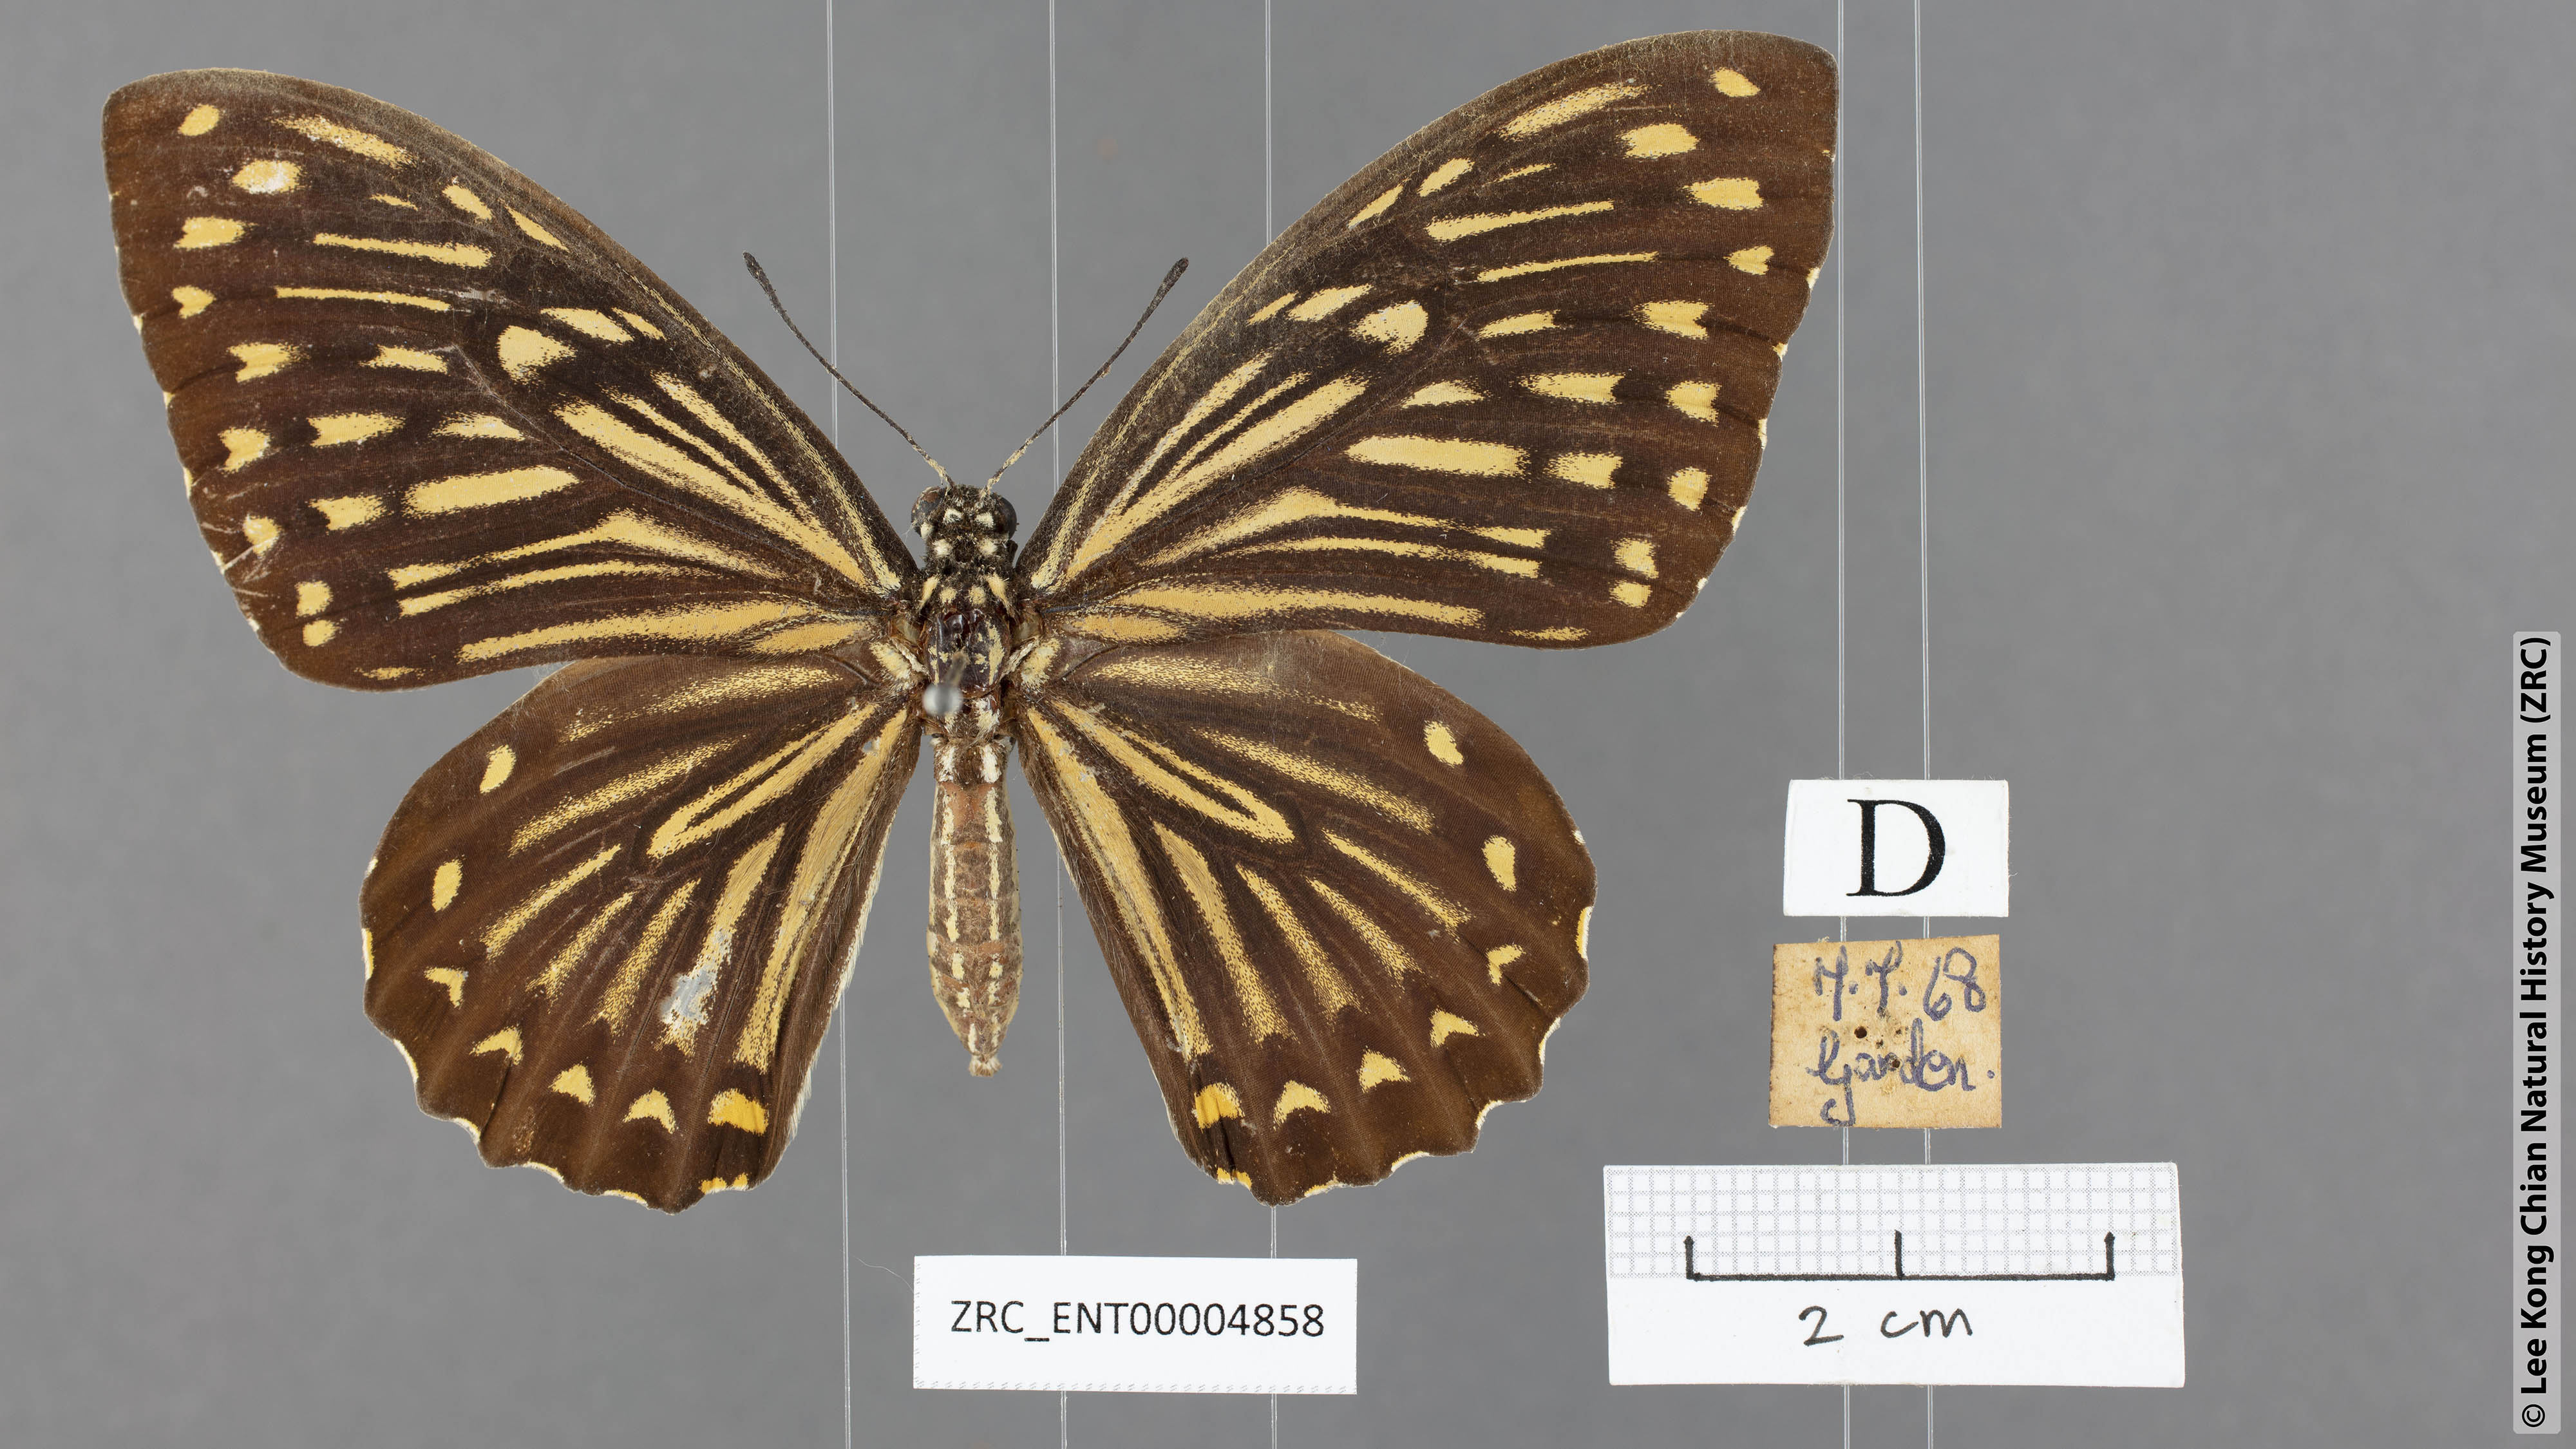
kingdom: Animalia
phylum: Arthropoda
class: Insecta
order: Lepidoptera
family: Papilionidae
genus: Chilasa
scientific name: Chilasa clytia
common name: Common mime
